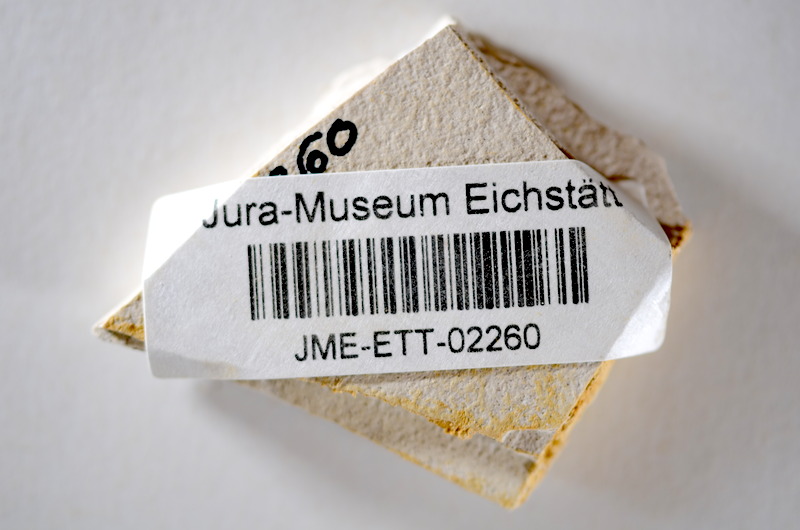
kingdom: Animalia
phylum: Chordata
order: Salmoniformes
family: Orthogonikleithridae
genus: Orthogonikleithrus
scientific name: Orthogonikleithrus hoelli
